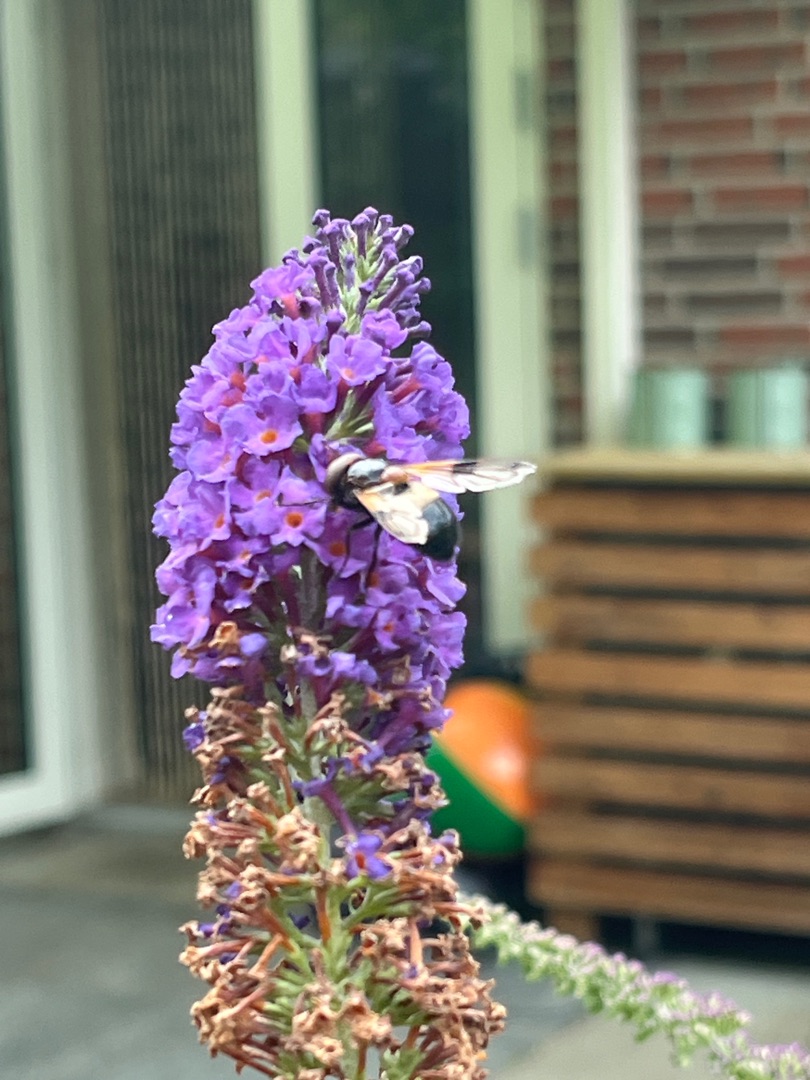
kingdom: Animalia
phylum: Arthropoda
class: Insecta
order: Diptera
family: Syrphidae
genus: Volucella
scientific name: Volucella pellucens
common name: Hvidbåndet humlesvirreflue
